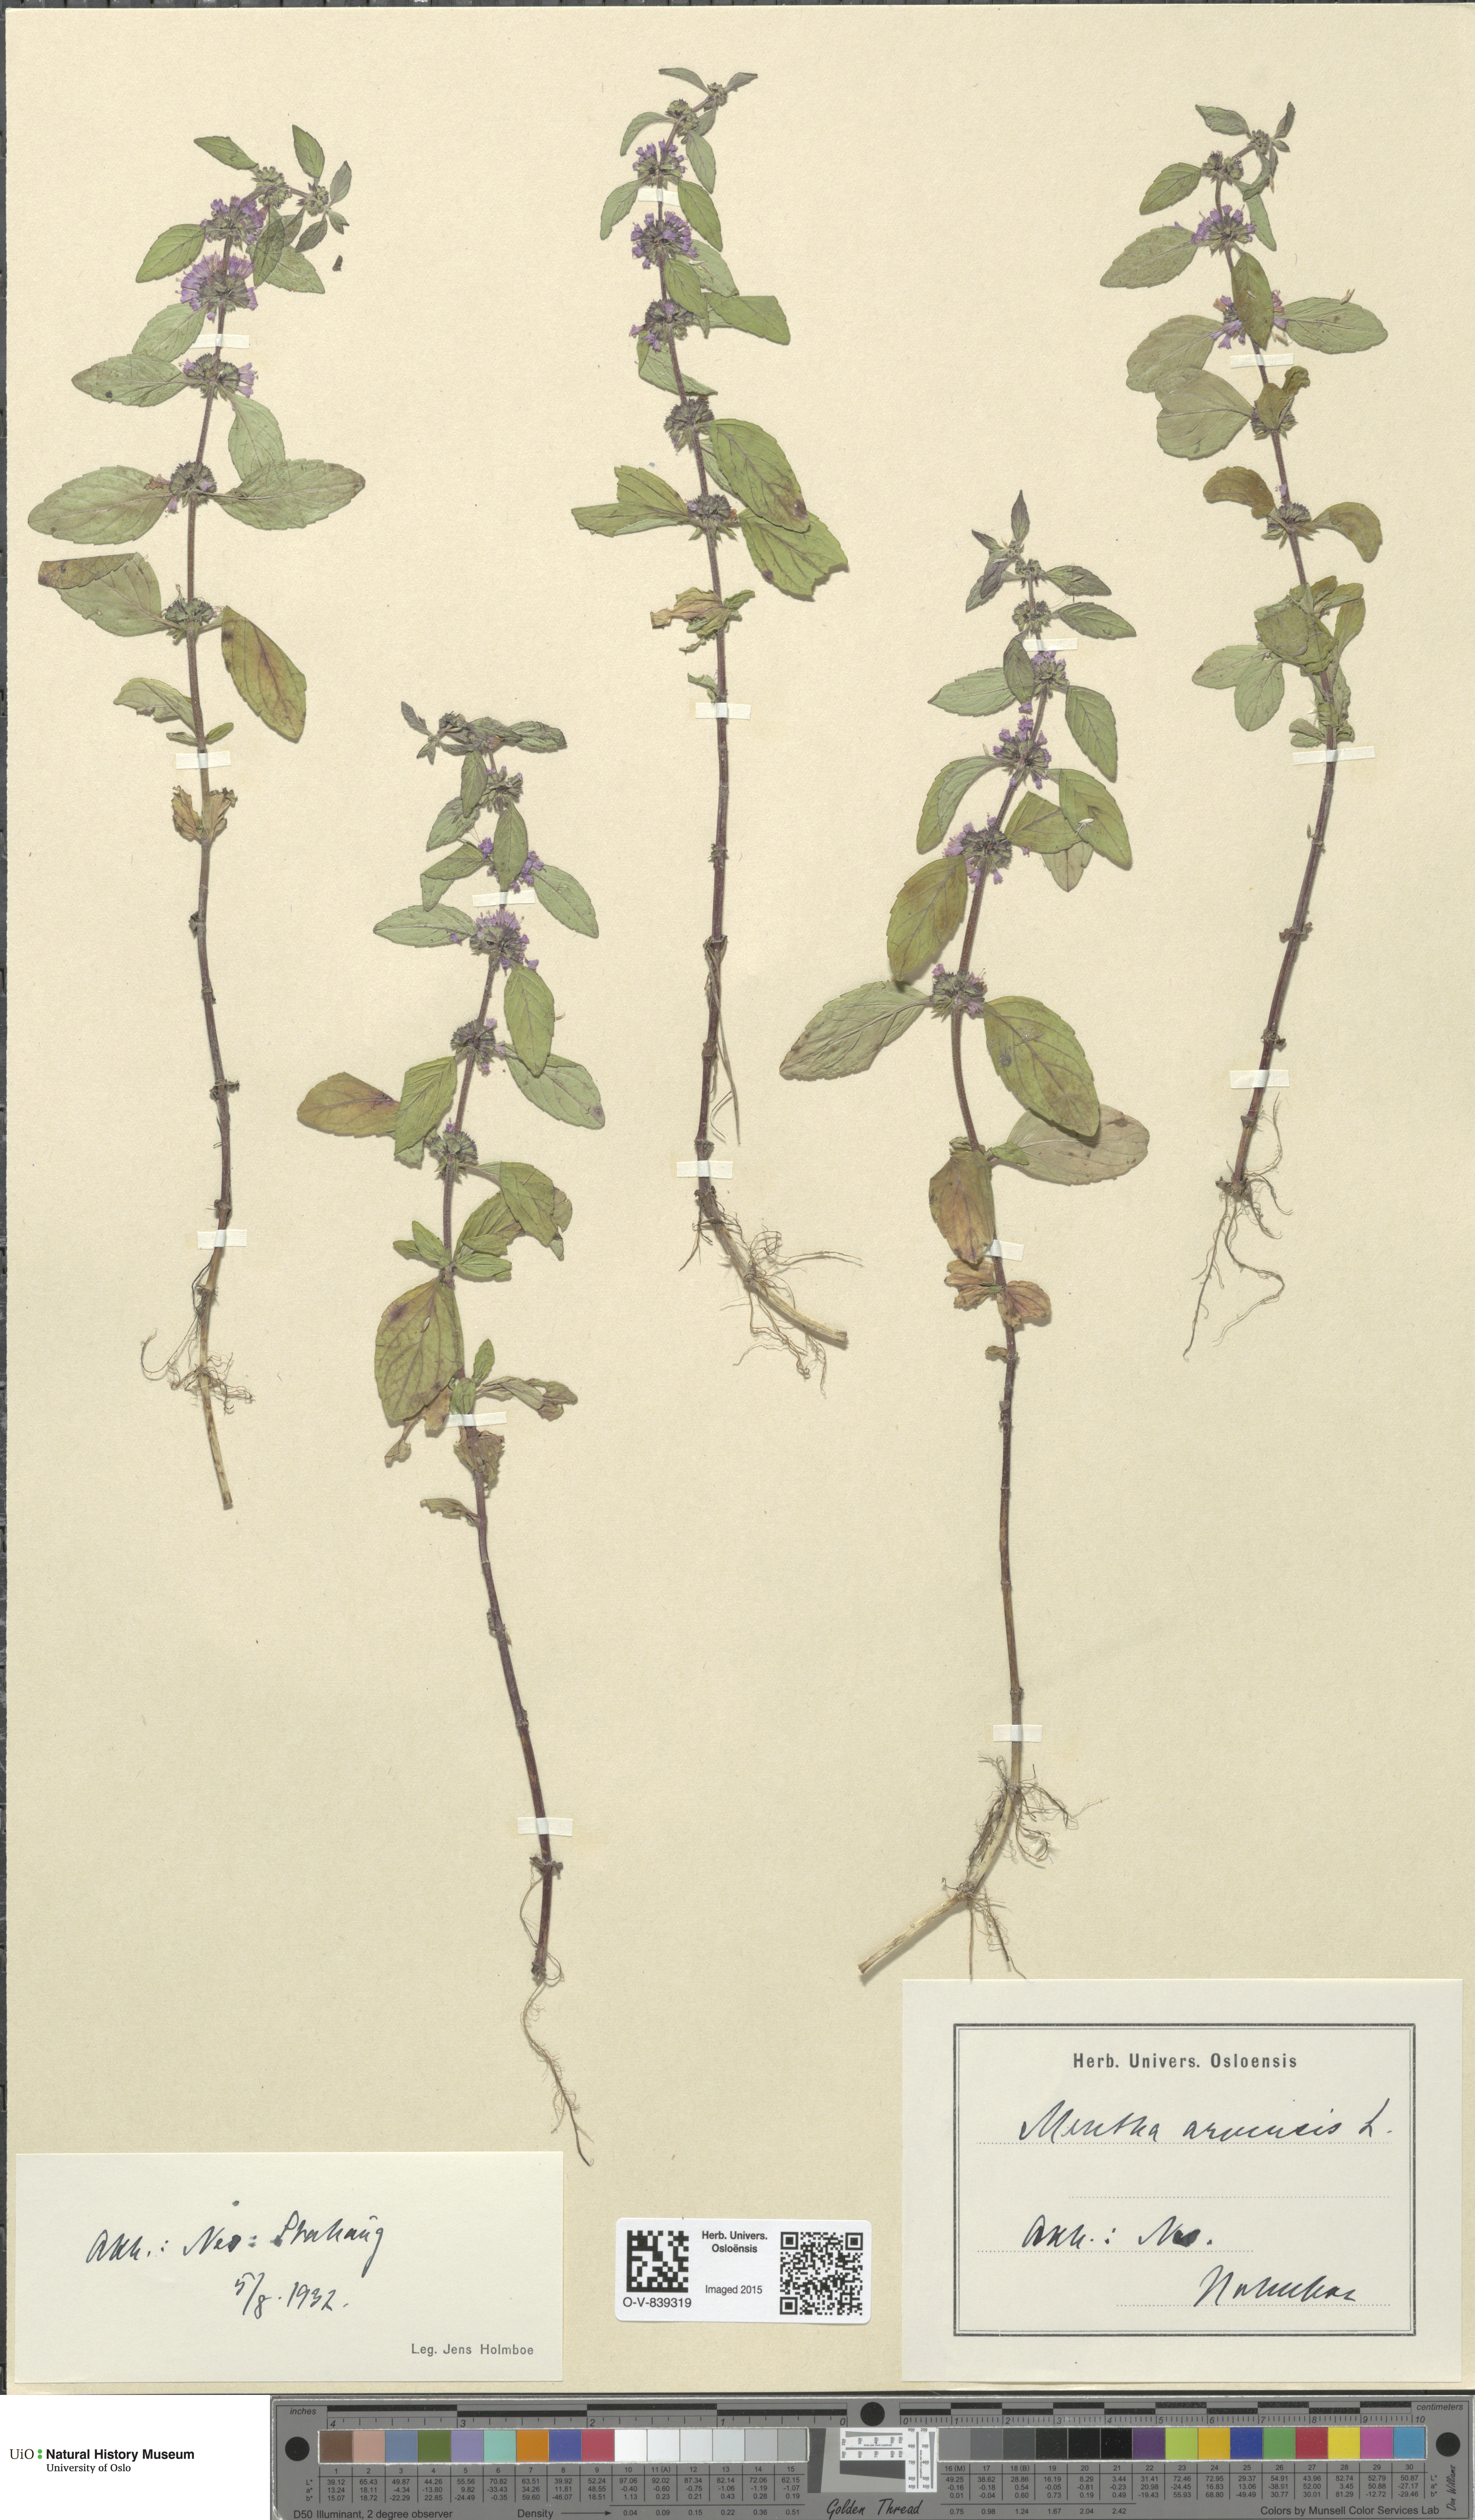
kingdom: Plantae
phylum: Tracheophyta
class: Magnoliopsida
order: Lamiales
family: Lamiaceae
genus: Mentha
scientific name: Mentha arvensis
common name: Corn mint
